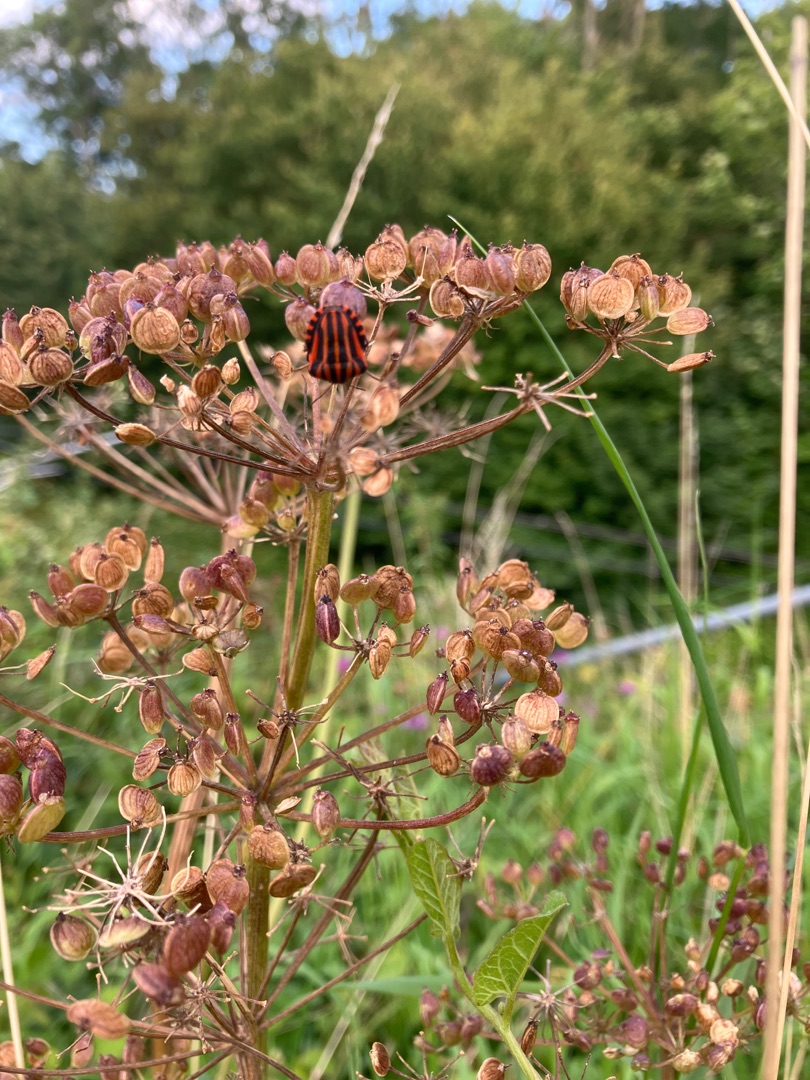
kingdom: Animalia
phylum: Arthropoda
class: Insecta
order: Hemiptera
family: Pentatomidae
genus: Graphosoma
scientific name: Graphosoma italicum
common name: Stribetæge
